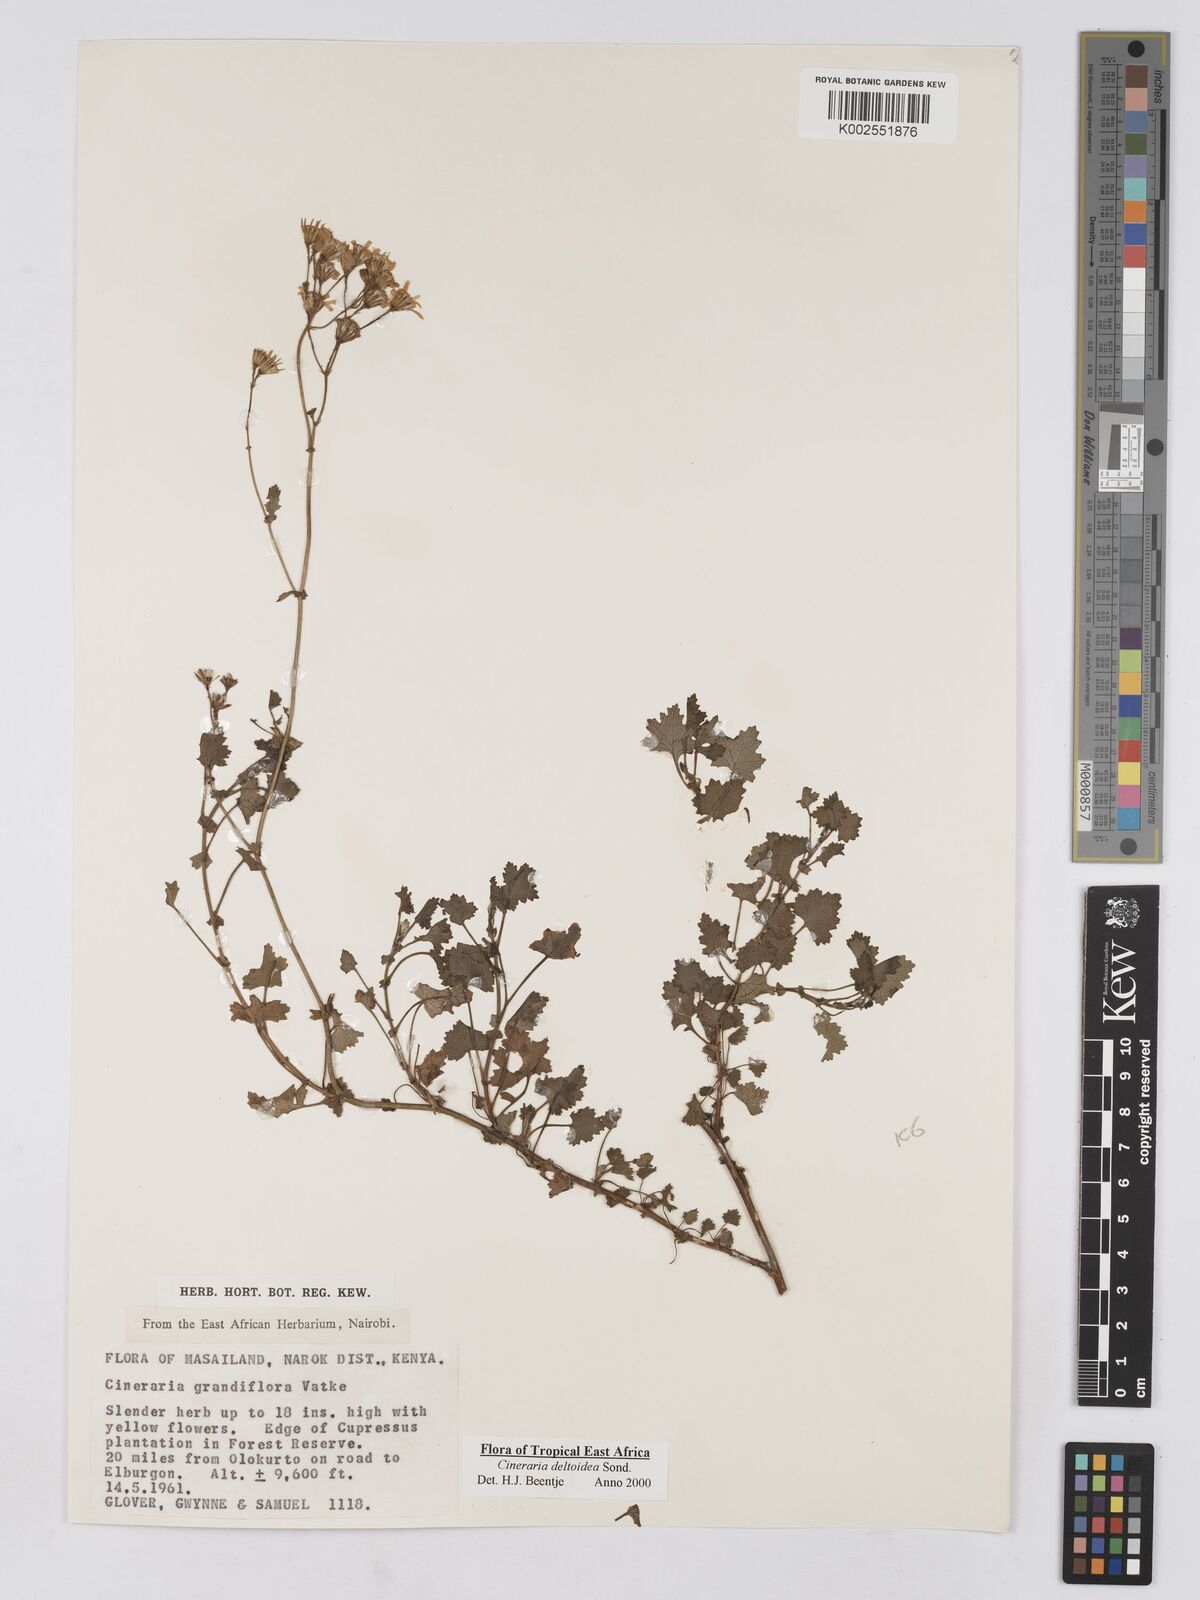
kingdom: Plantae
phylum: Tracheophyta
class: Magnoliopsida
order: Asterales
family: Asteraceae
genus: Cineraria
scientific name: Cineraria deltoidea
